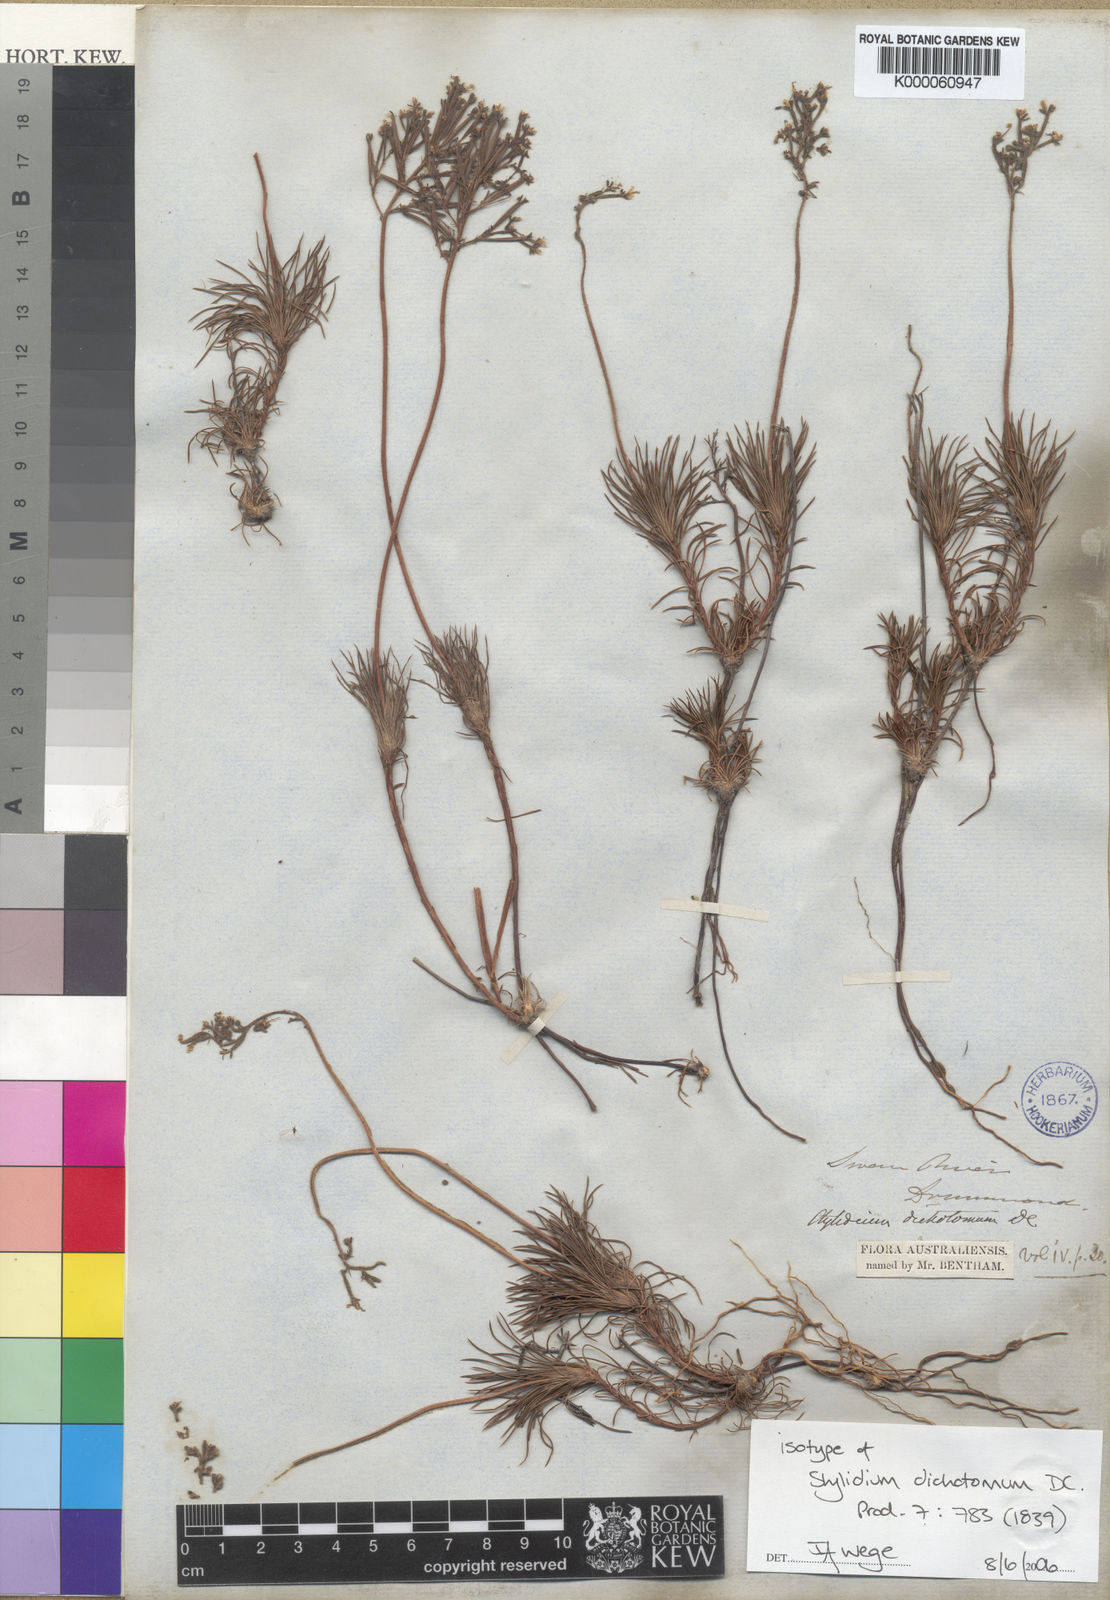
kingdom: Plantae
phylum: Tracheophyta
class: Magnoliopsida
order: Asterales
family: Stylidiaceae
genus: Stylidium
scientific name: Stylidium dichotomum
